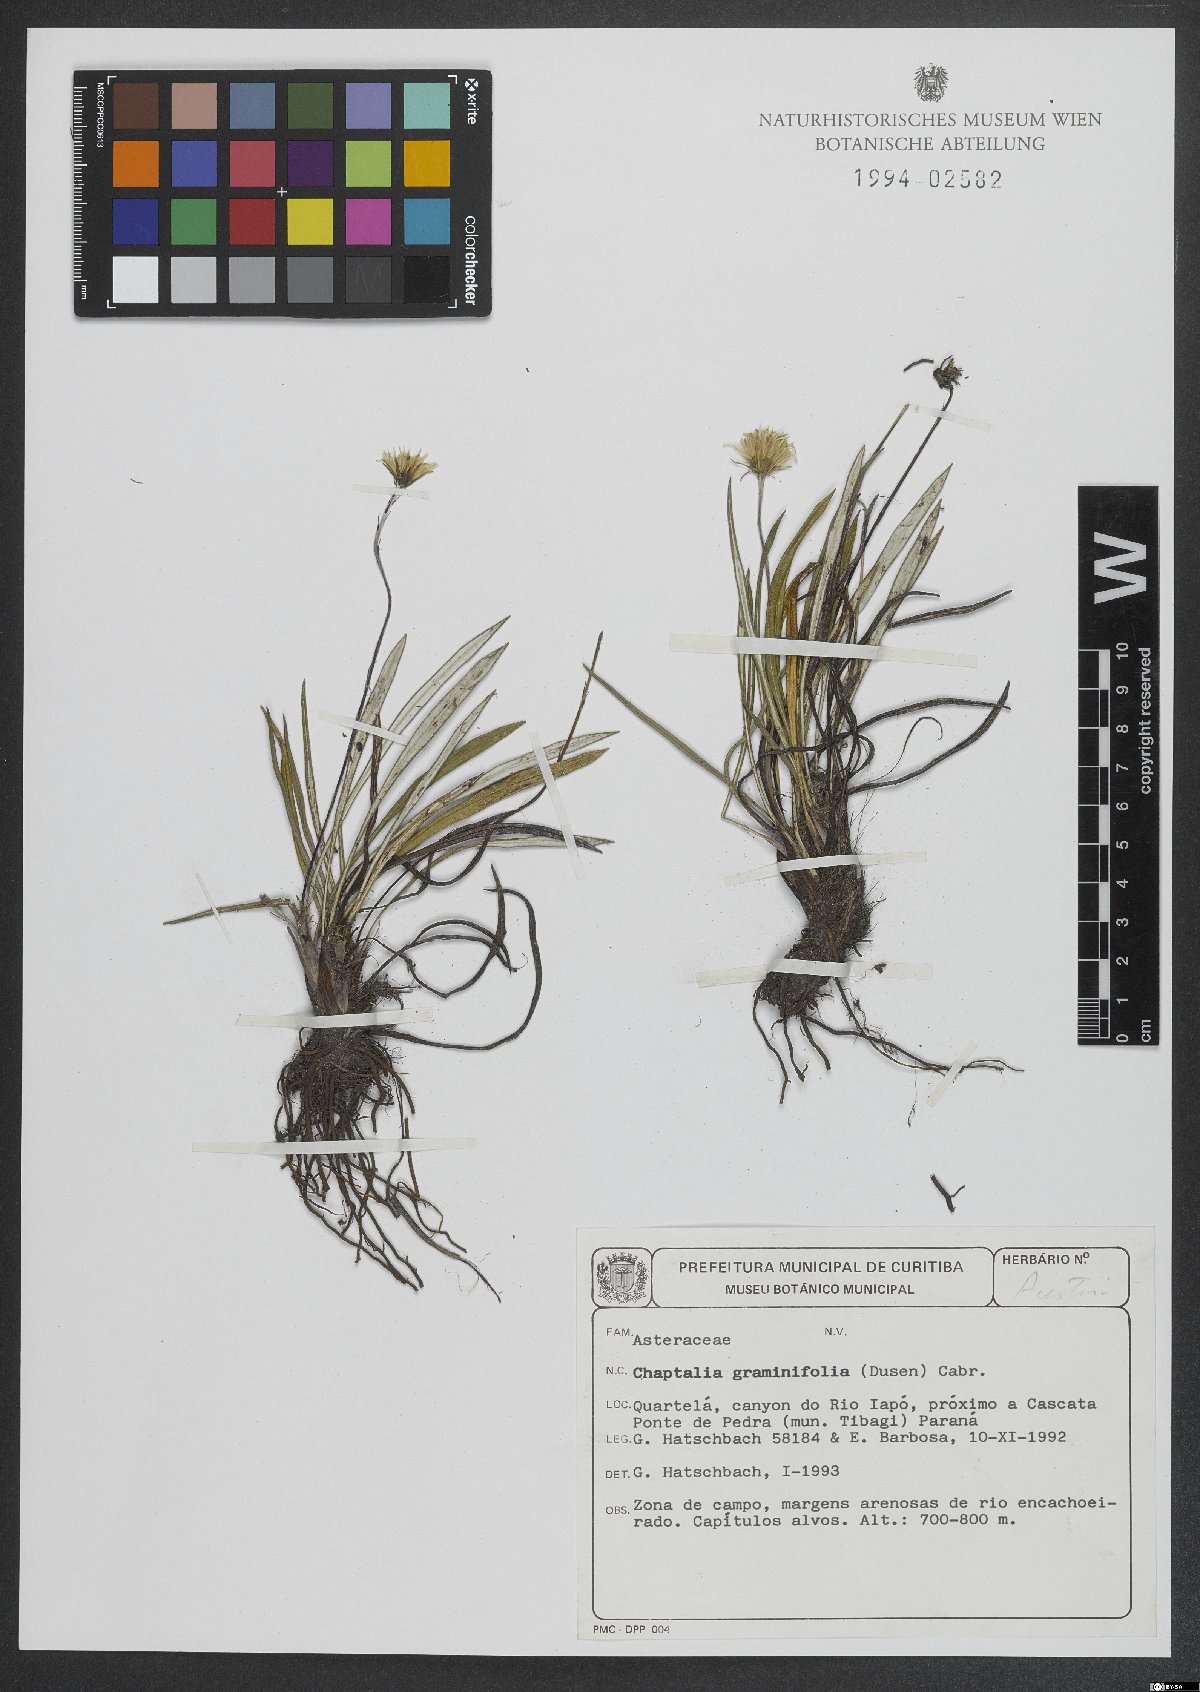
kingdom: Plantae
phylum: Tracheophyta
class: Magnoliopsida
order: Asterales
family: Asteraceae
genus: Chaptalia
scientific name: Chaptalia graminifolia
